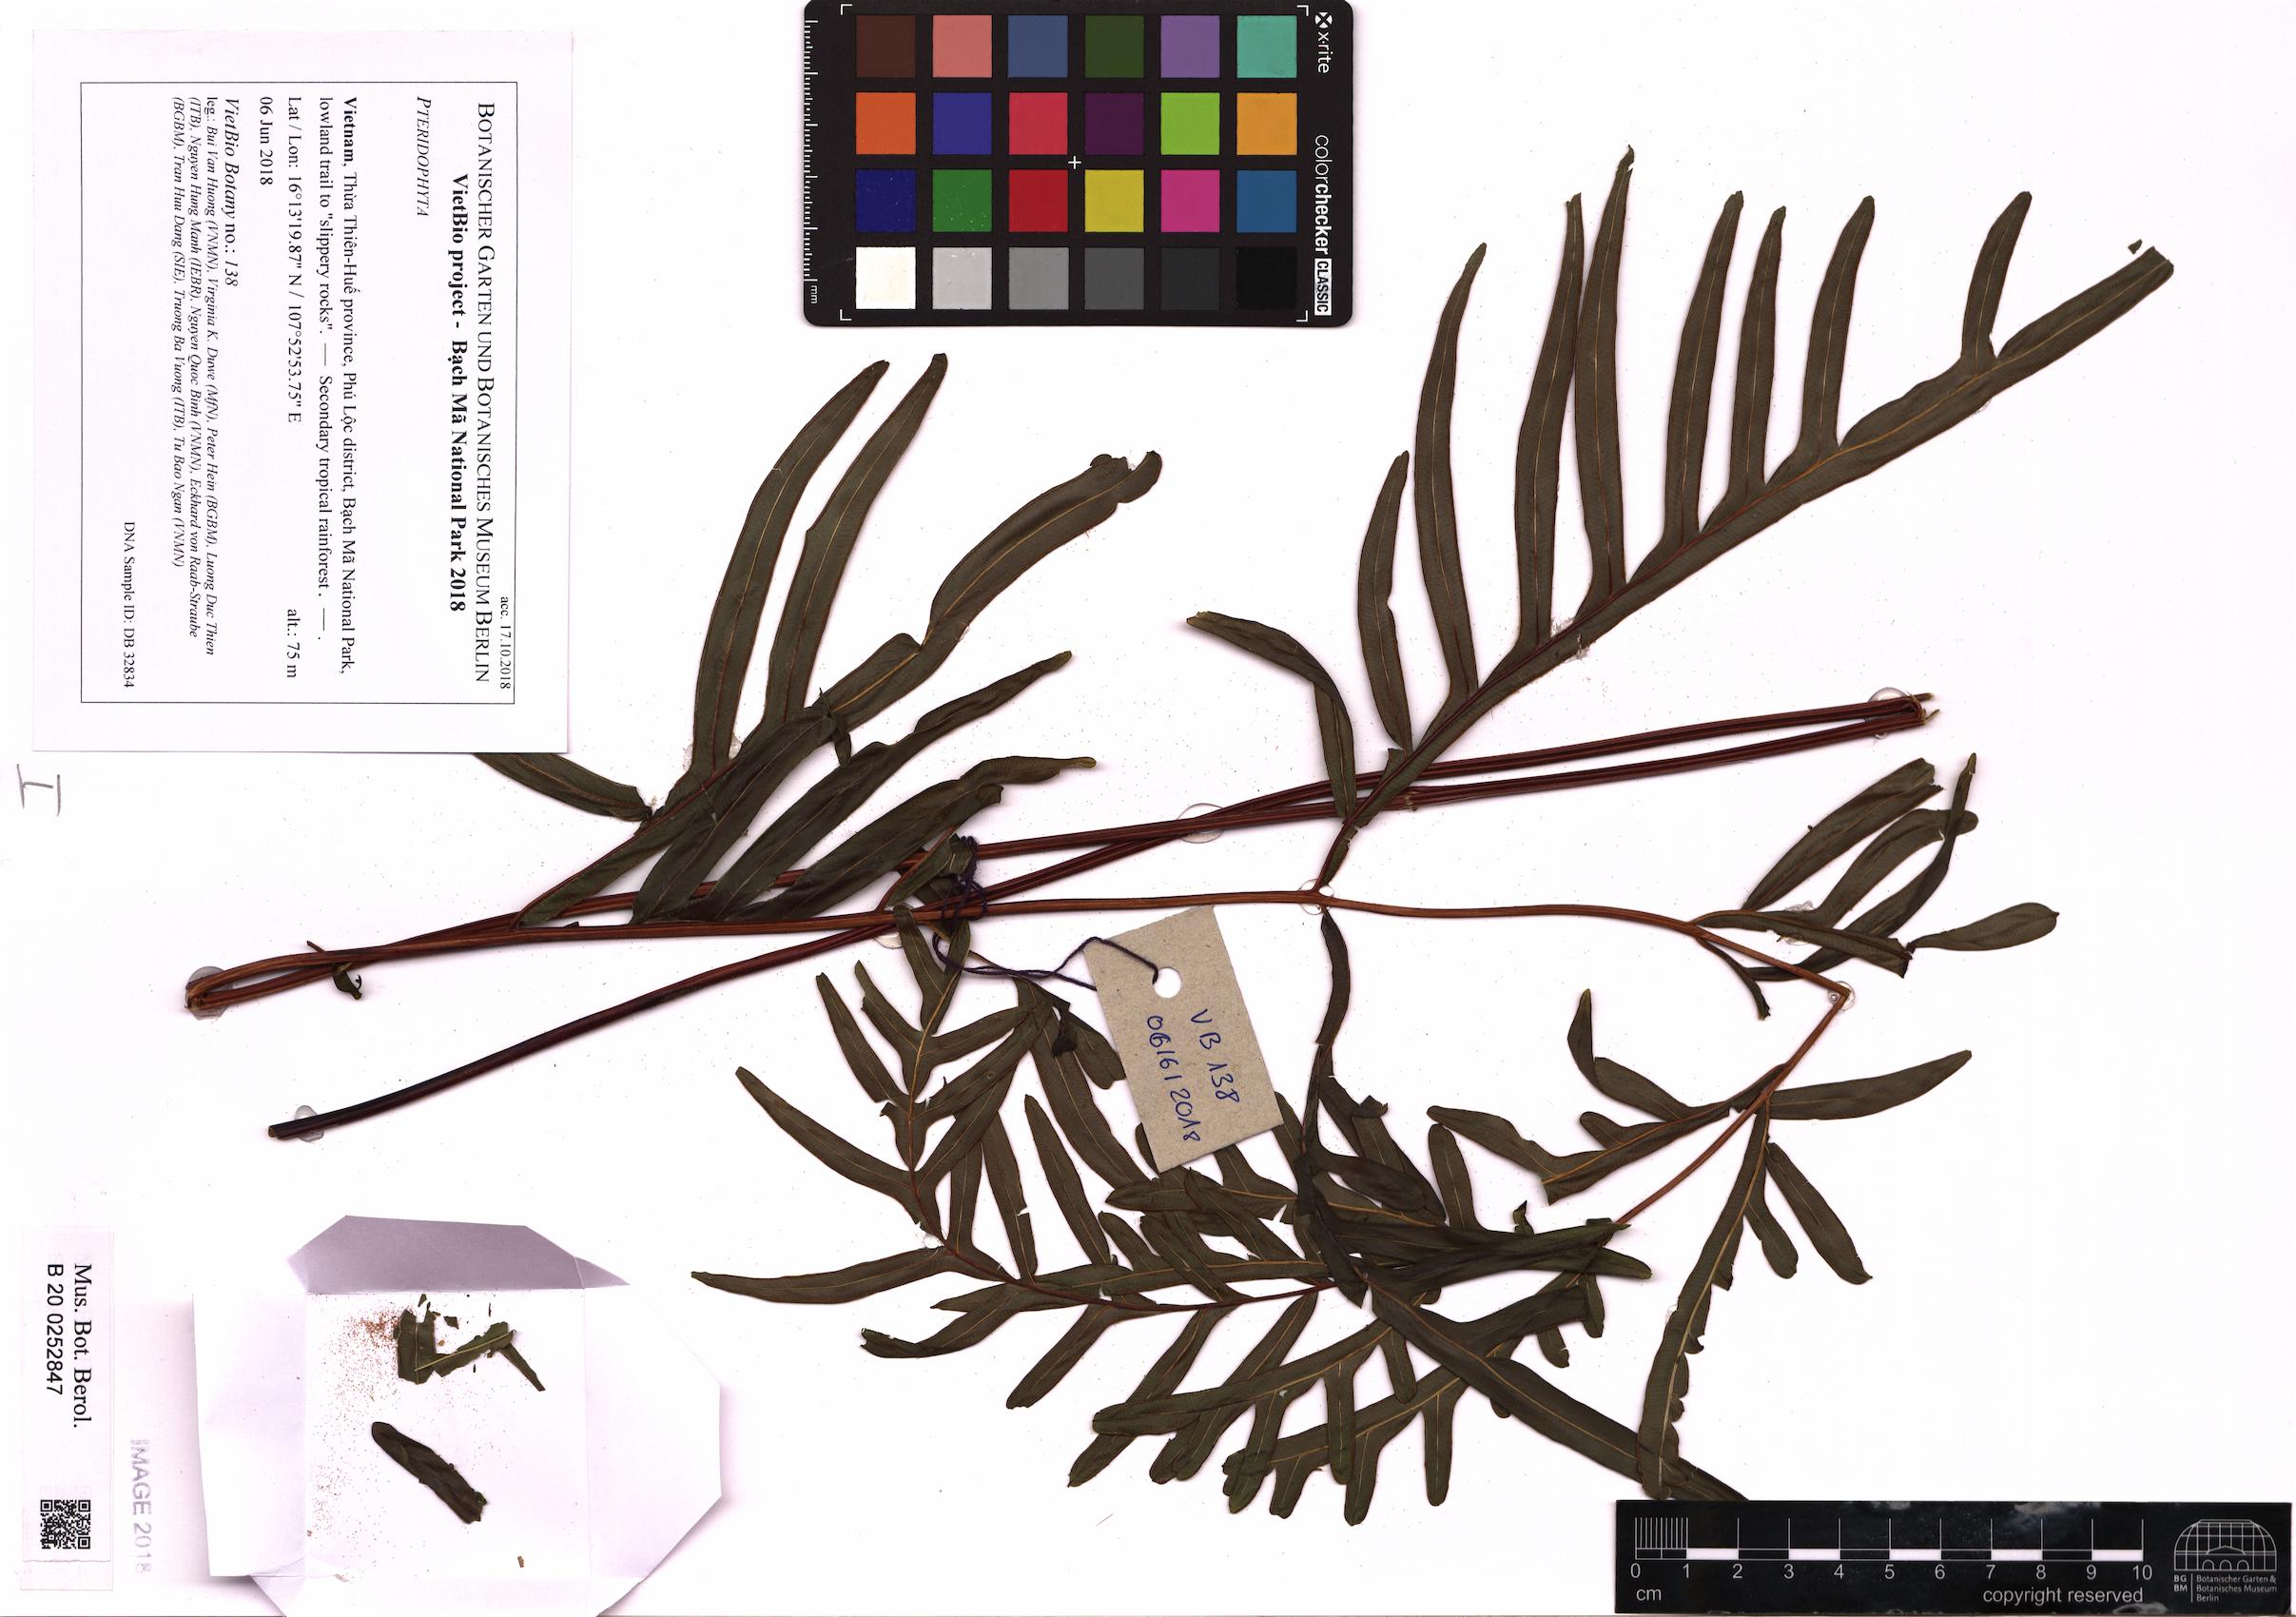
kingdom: Plantae
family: Pteridophyta
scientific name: Pteridophyta
